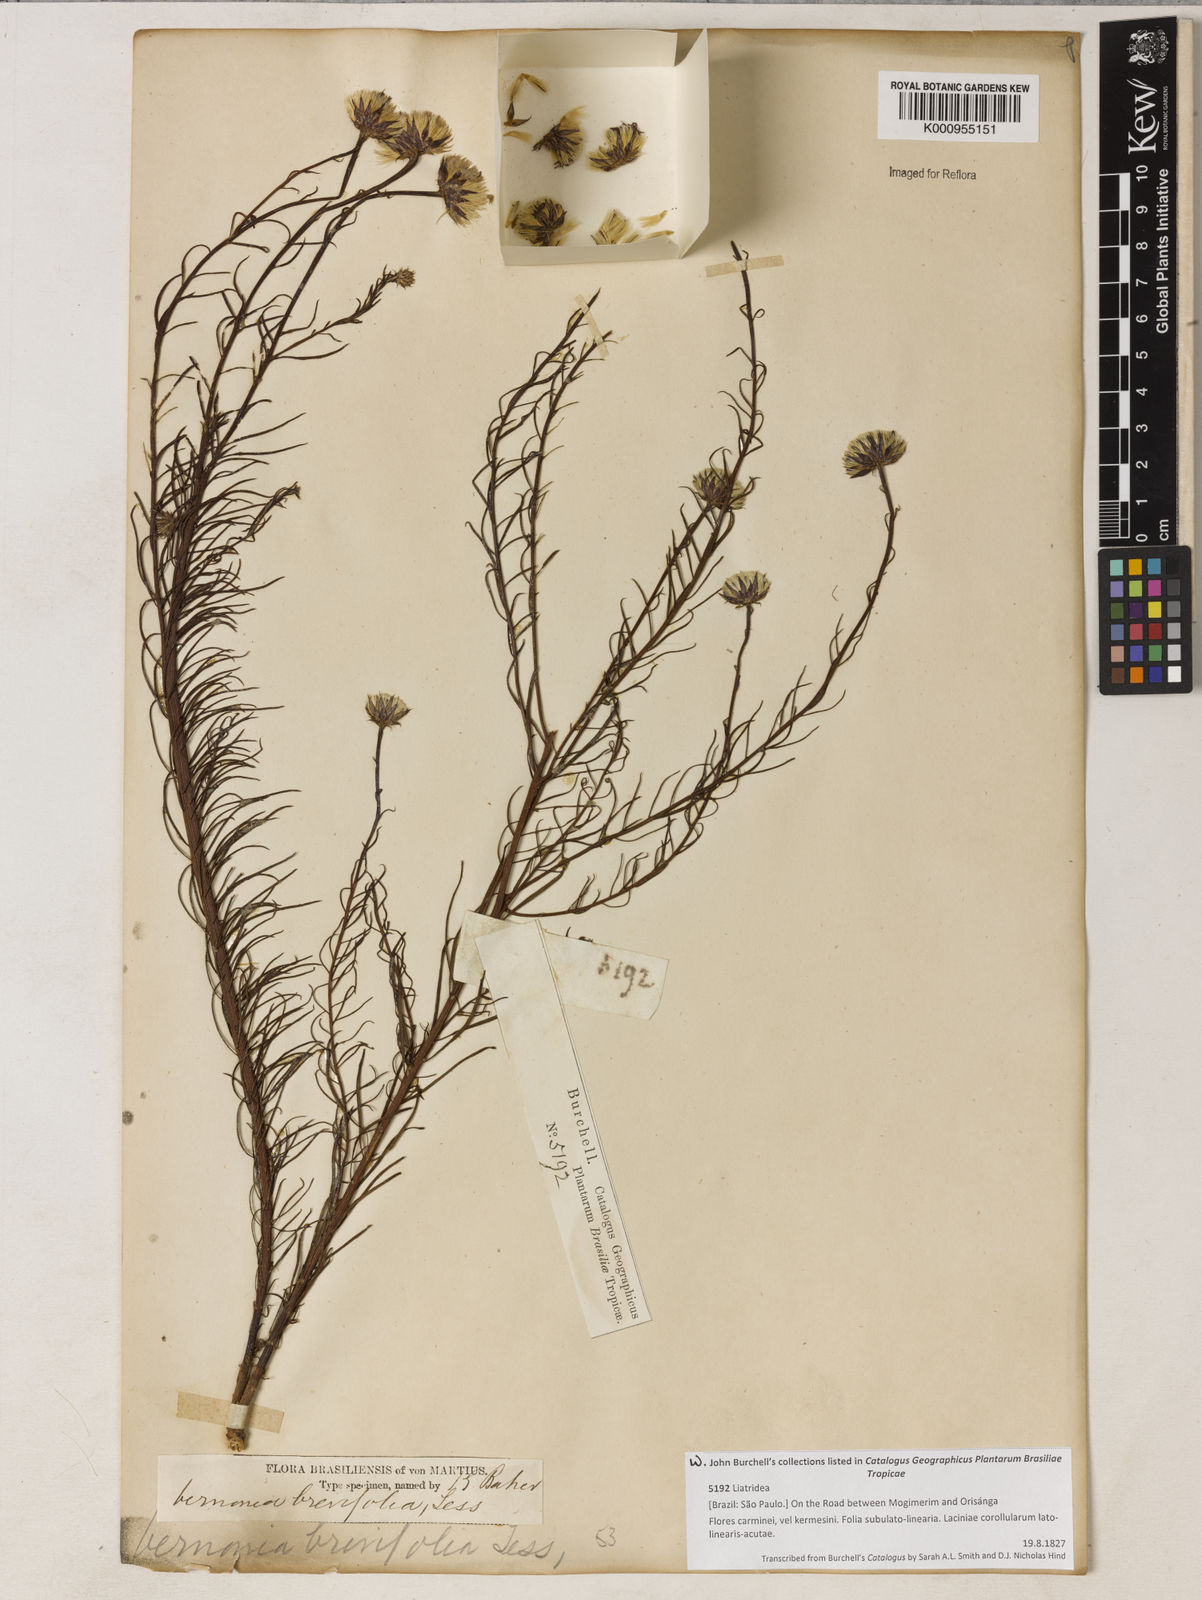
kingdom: Plantae
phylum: Tracheophyta
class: Magnoliopsida
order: Asterales
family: Asteraceae
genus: Lessingianthus
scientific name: Lessingianthus brevifolius
